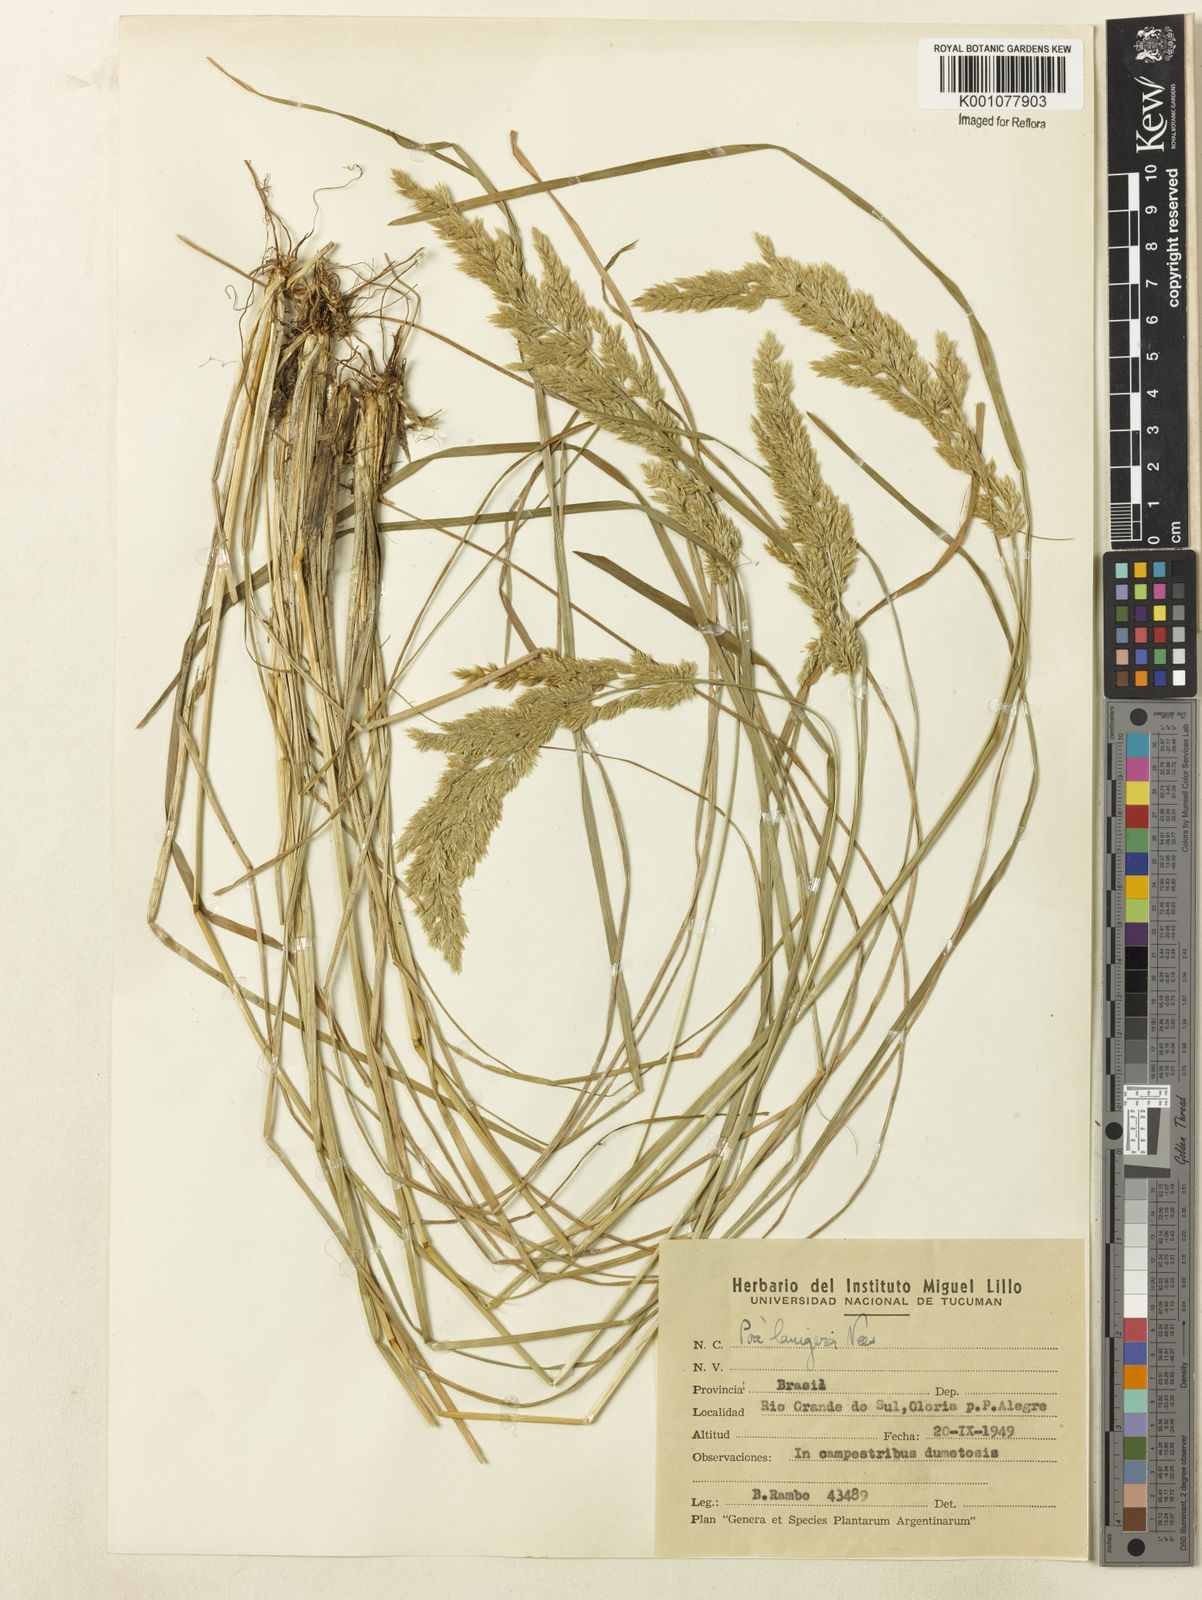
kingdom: Plantae
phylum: Tracheophyta
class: Liliopsida
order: Poales
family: Poaceae
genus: Poa
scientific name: Poa lanuginosa
